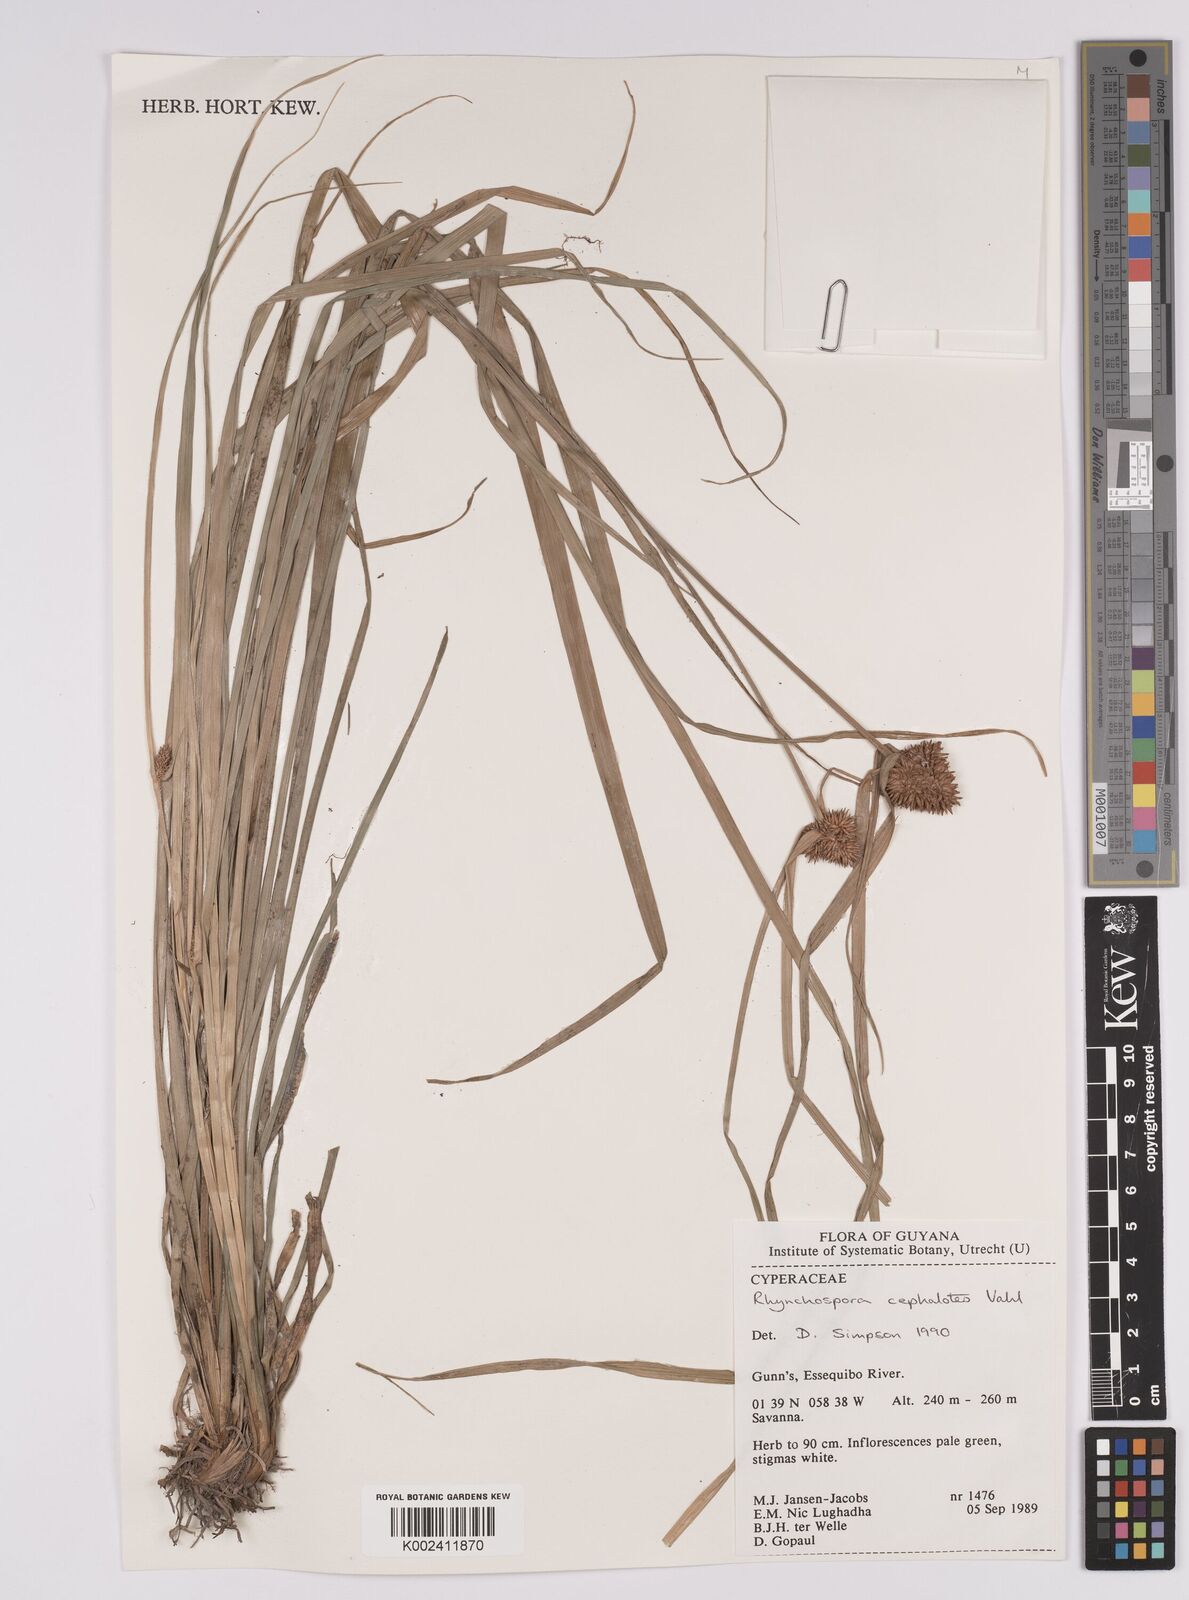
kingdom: Plantae
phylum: Tracheophyta
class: Liliopsida
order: Poales
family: Cyperaceae
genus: Rhynchospora
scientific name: Rhynchospora cephalotes
